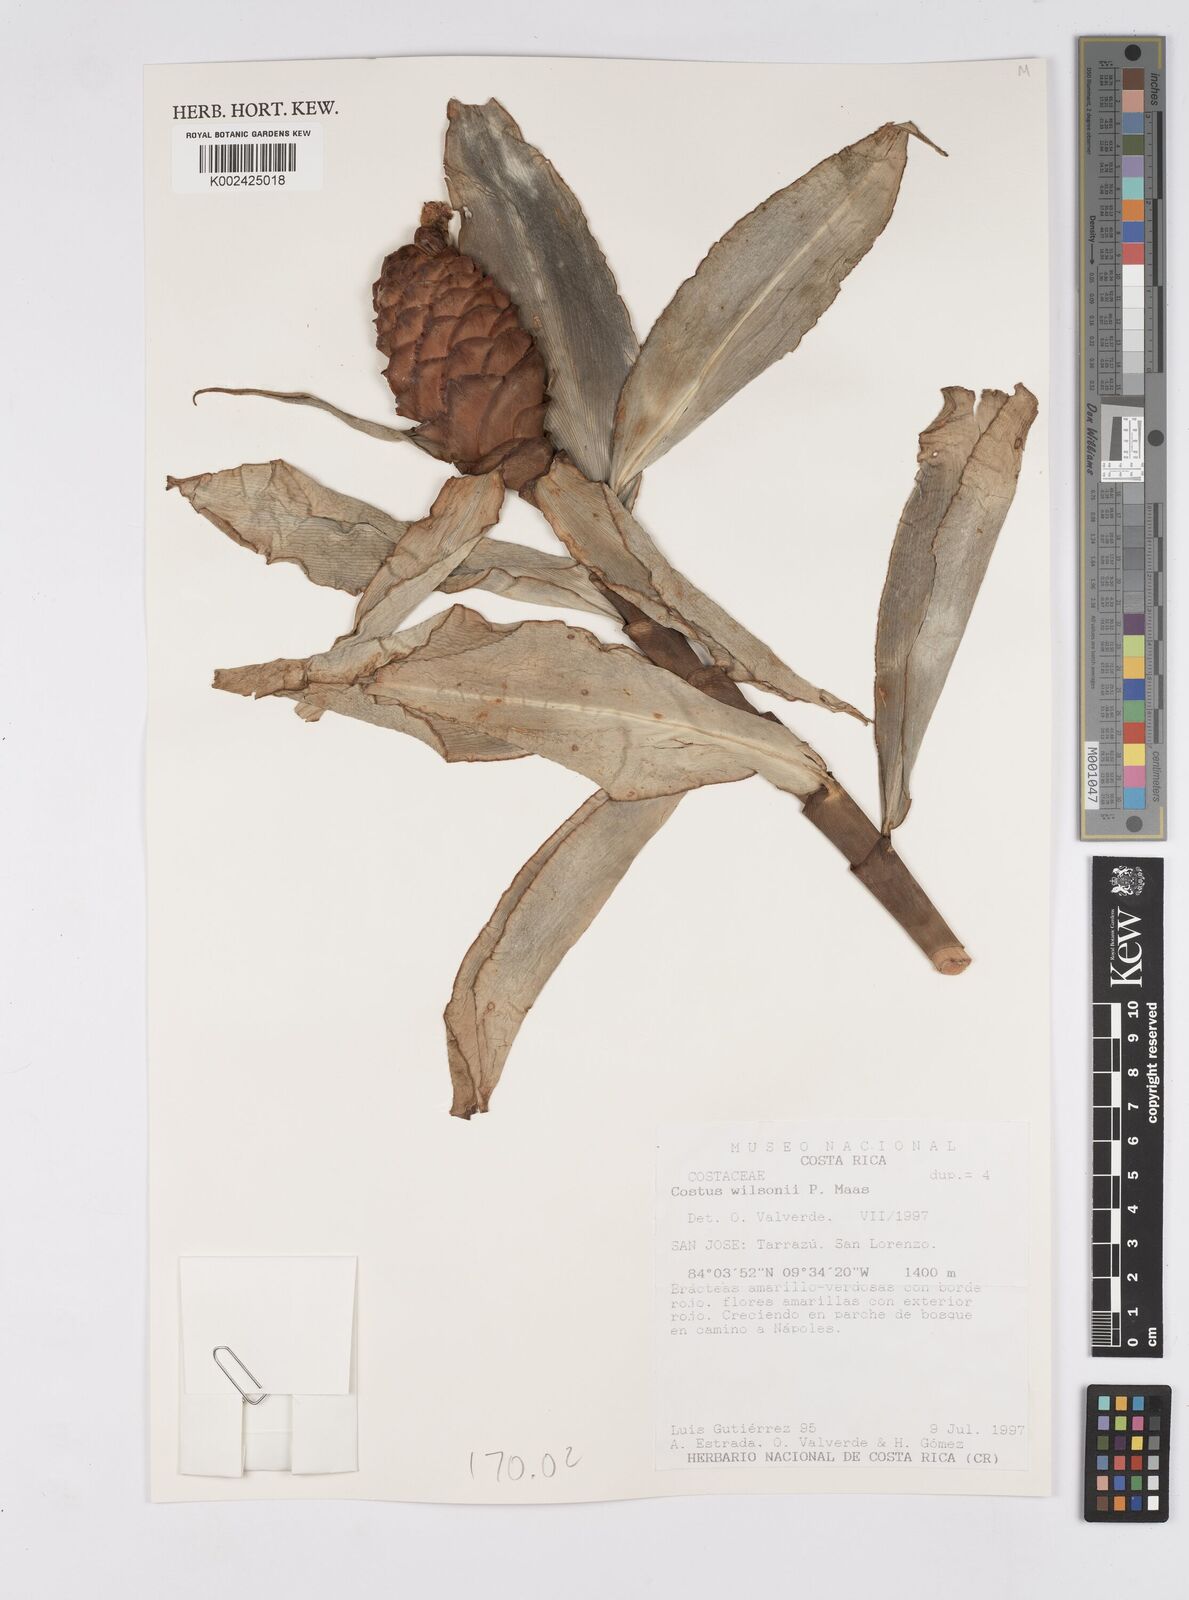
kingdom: Plantae
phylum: Tracheophyta
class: Liliopsida
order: Zingiberales
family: Costaceae
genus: Costus
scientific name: Costus wilsonii
